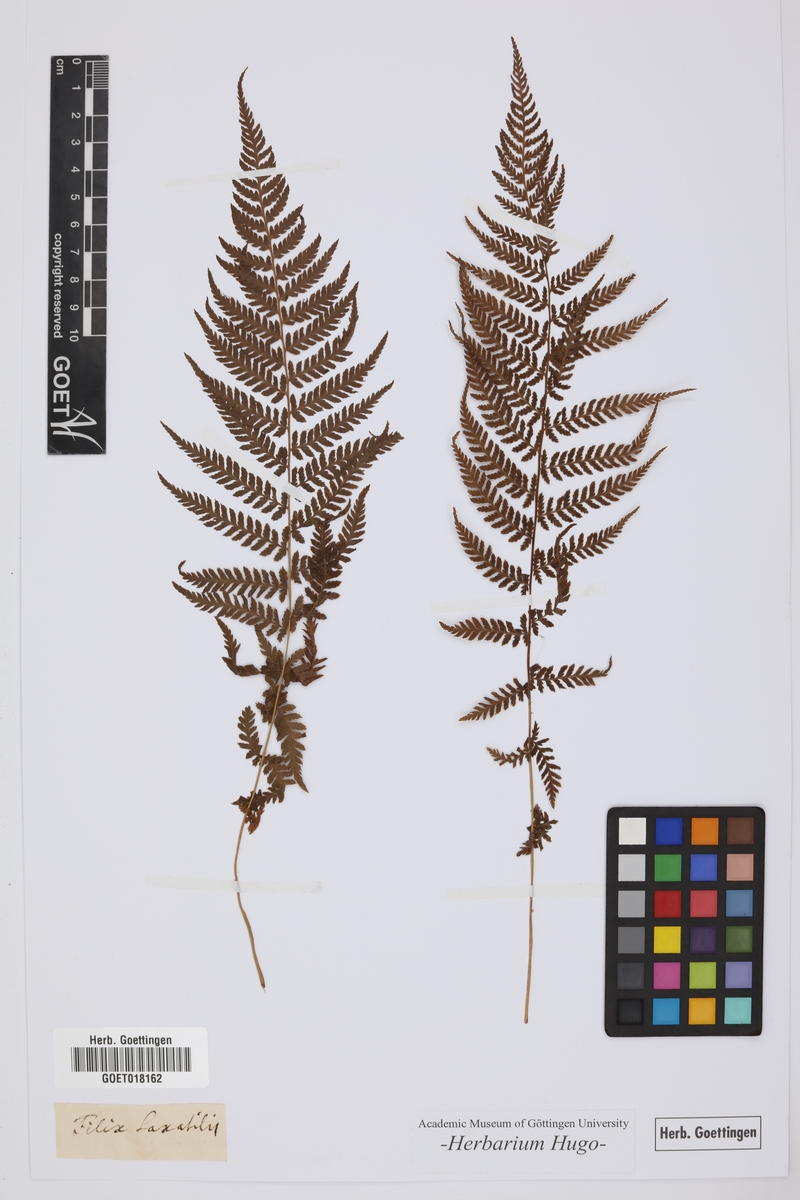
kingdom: Plantae
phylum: Tracheophyta
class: Polypodiopsida
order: Polypodiales
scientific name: Polypodiales
